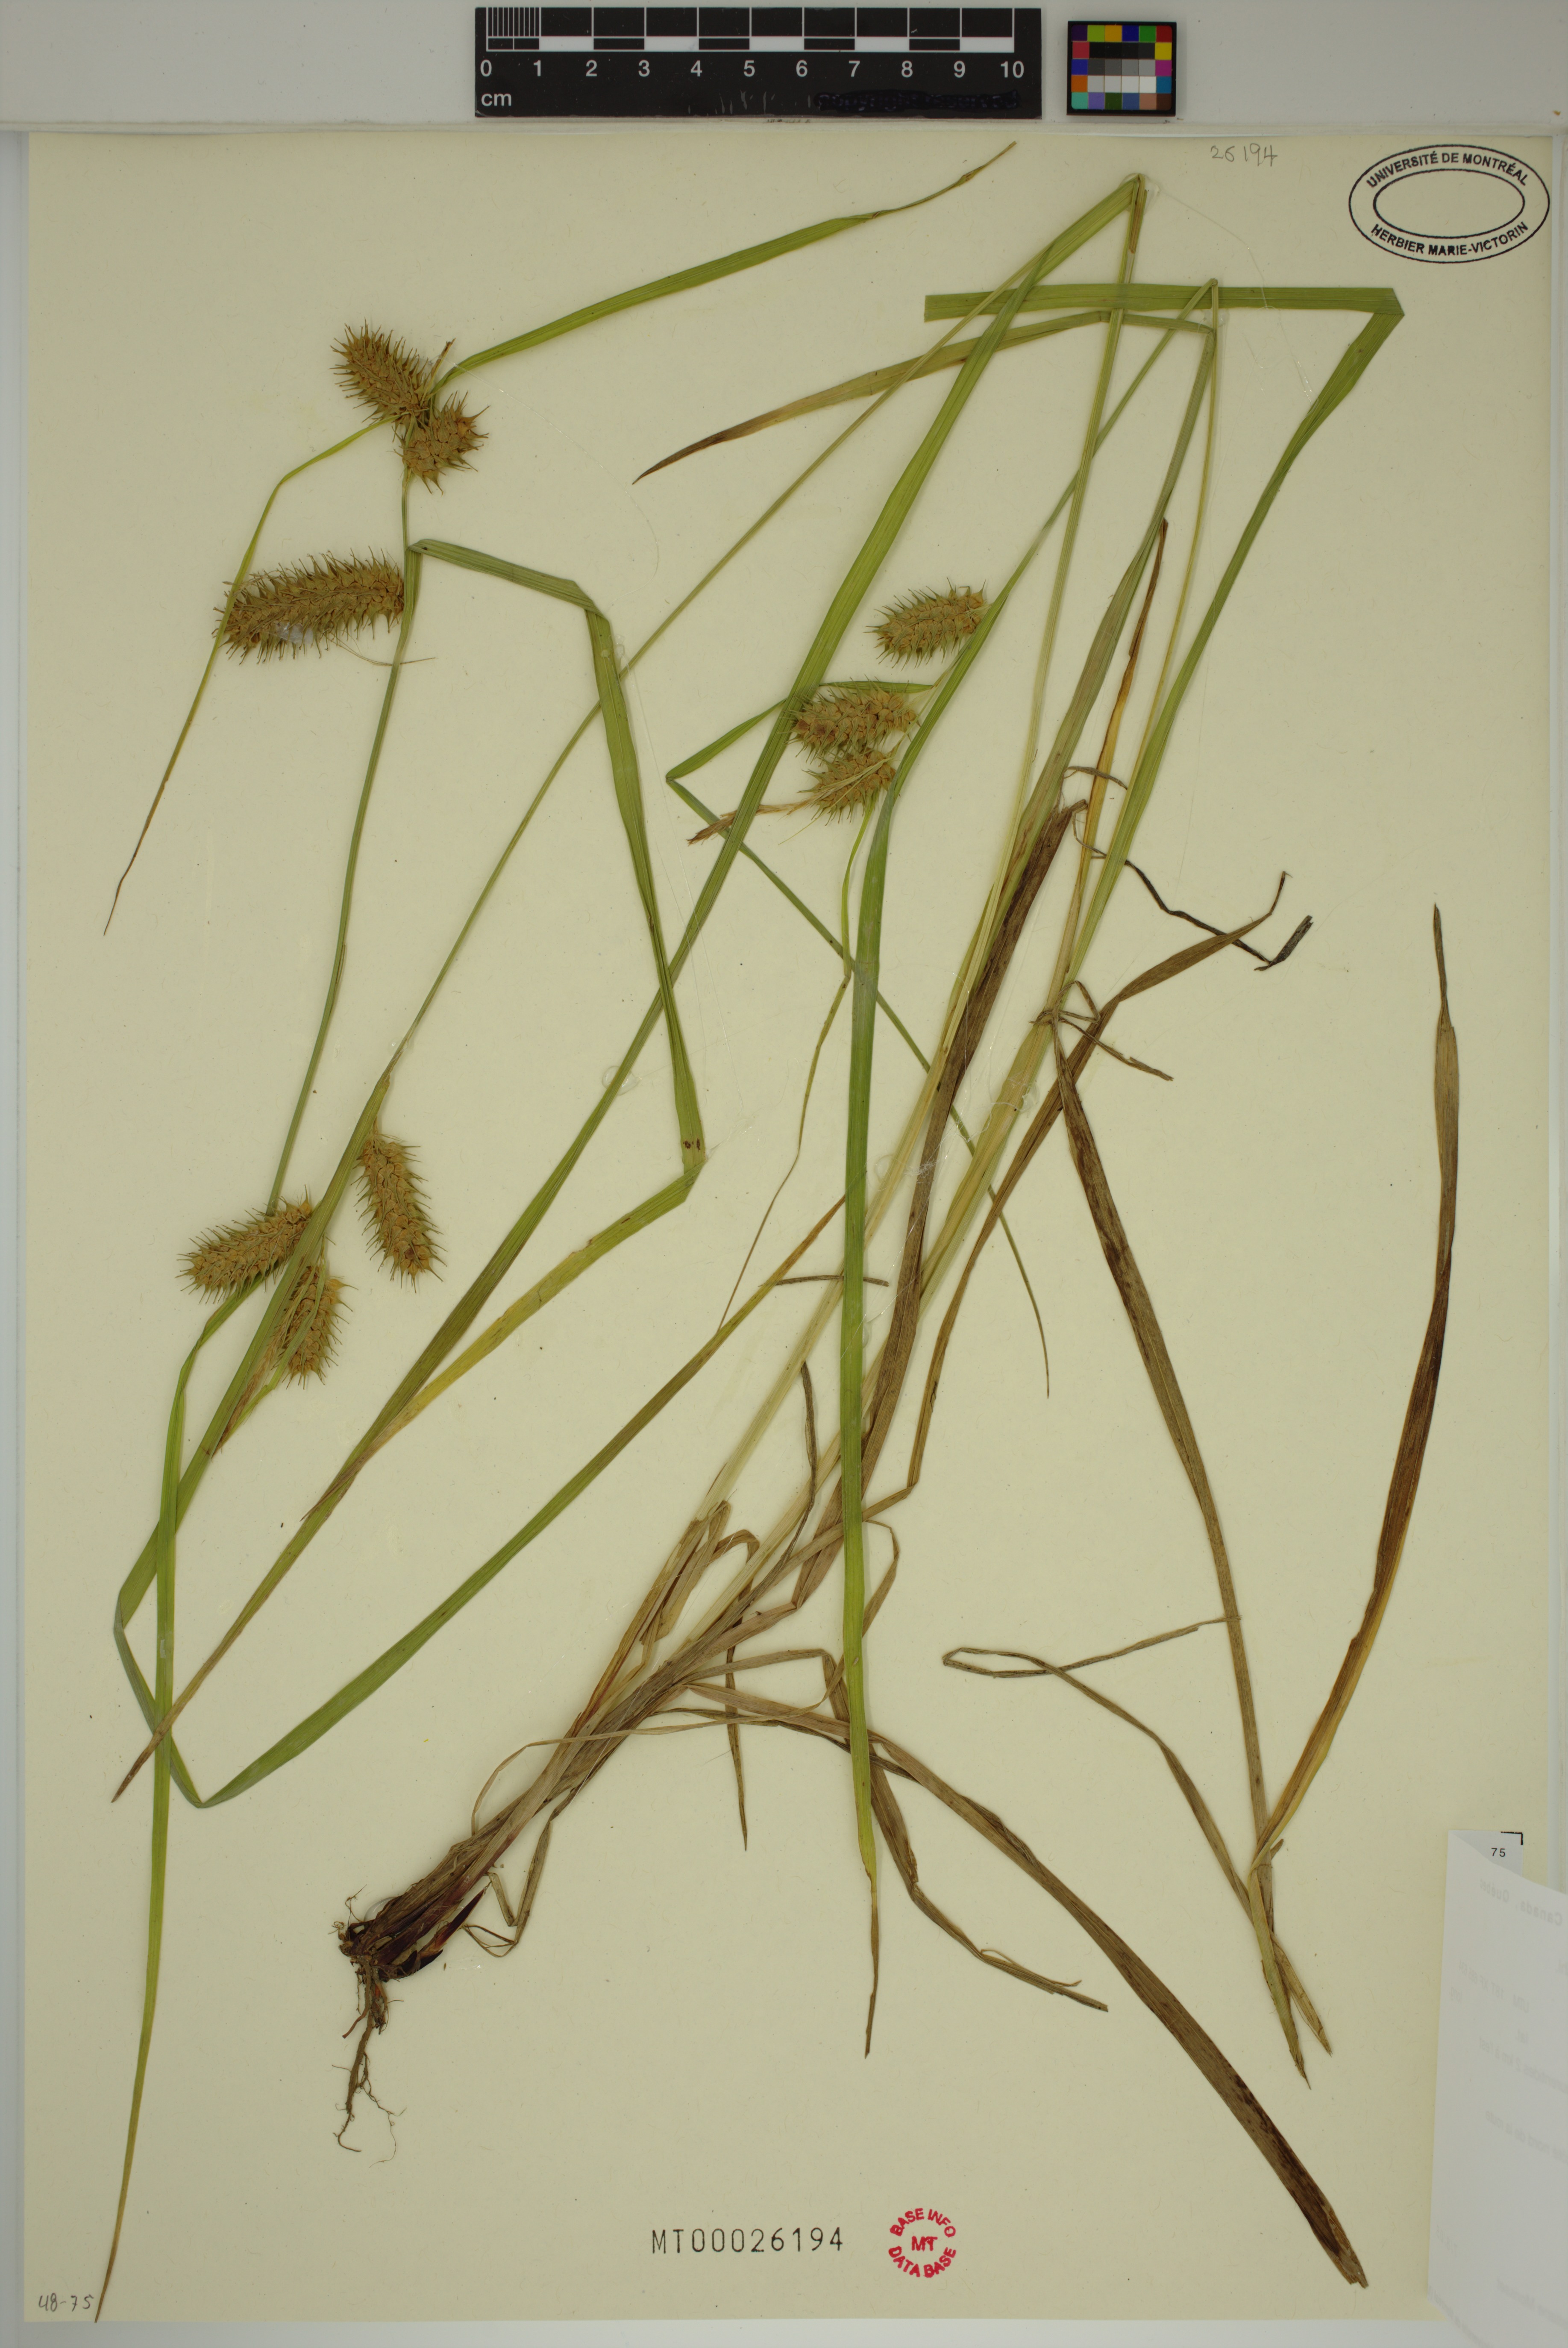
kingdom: Plantae
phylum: Tracheophyta
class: Liliopsida
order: Poales
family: Cyperaceae
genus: Carex
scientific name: Carex lurida
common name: Sallow sedge
